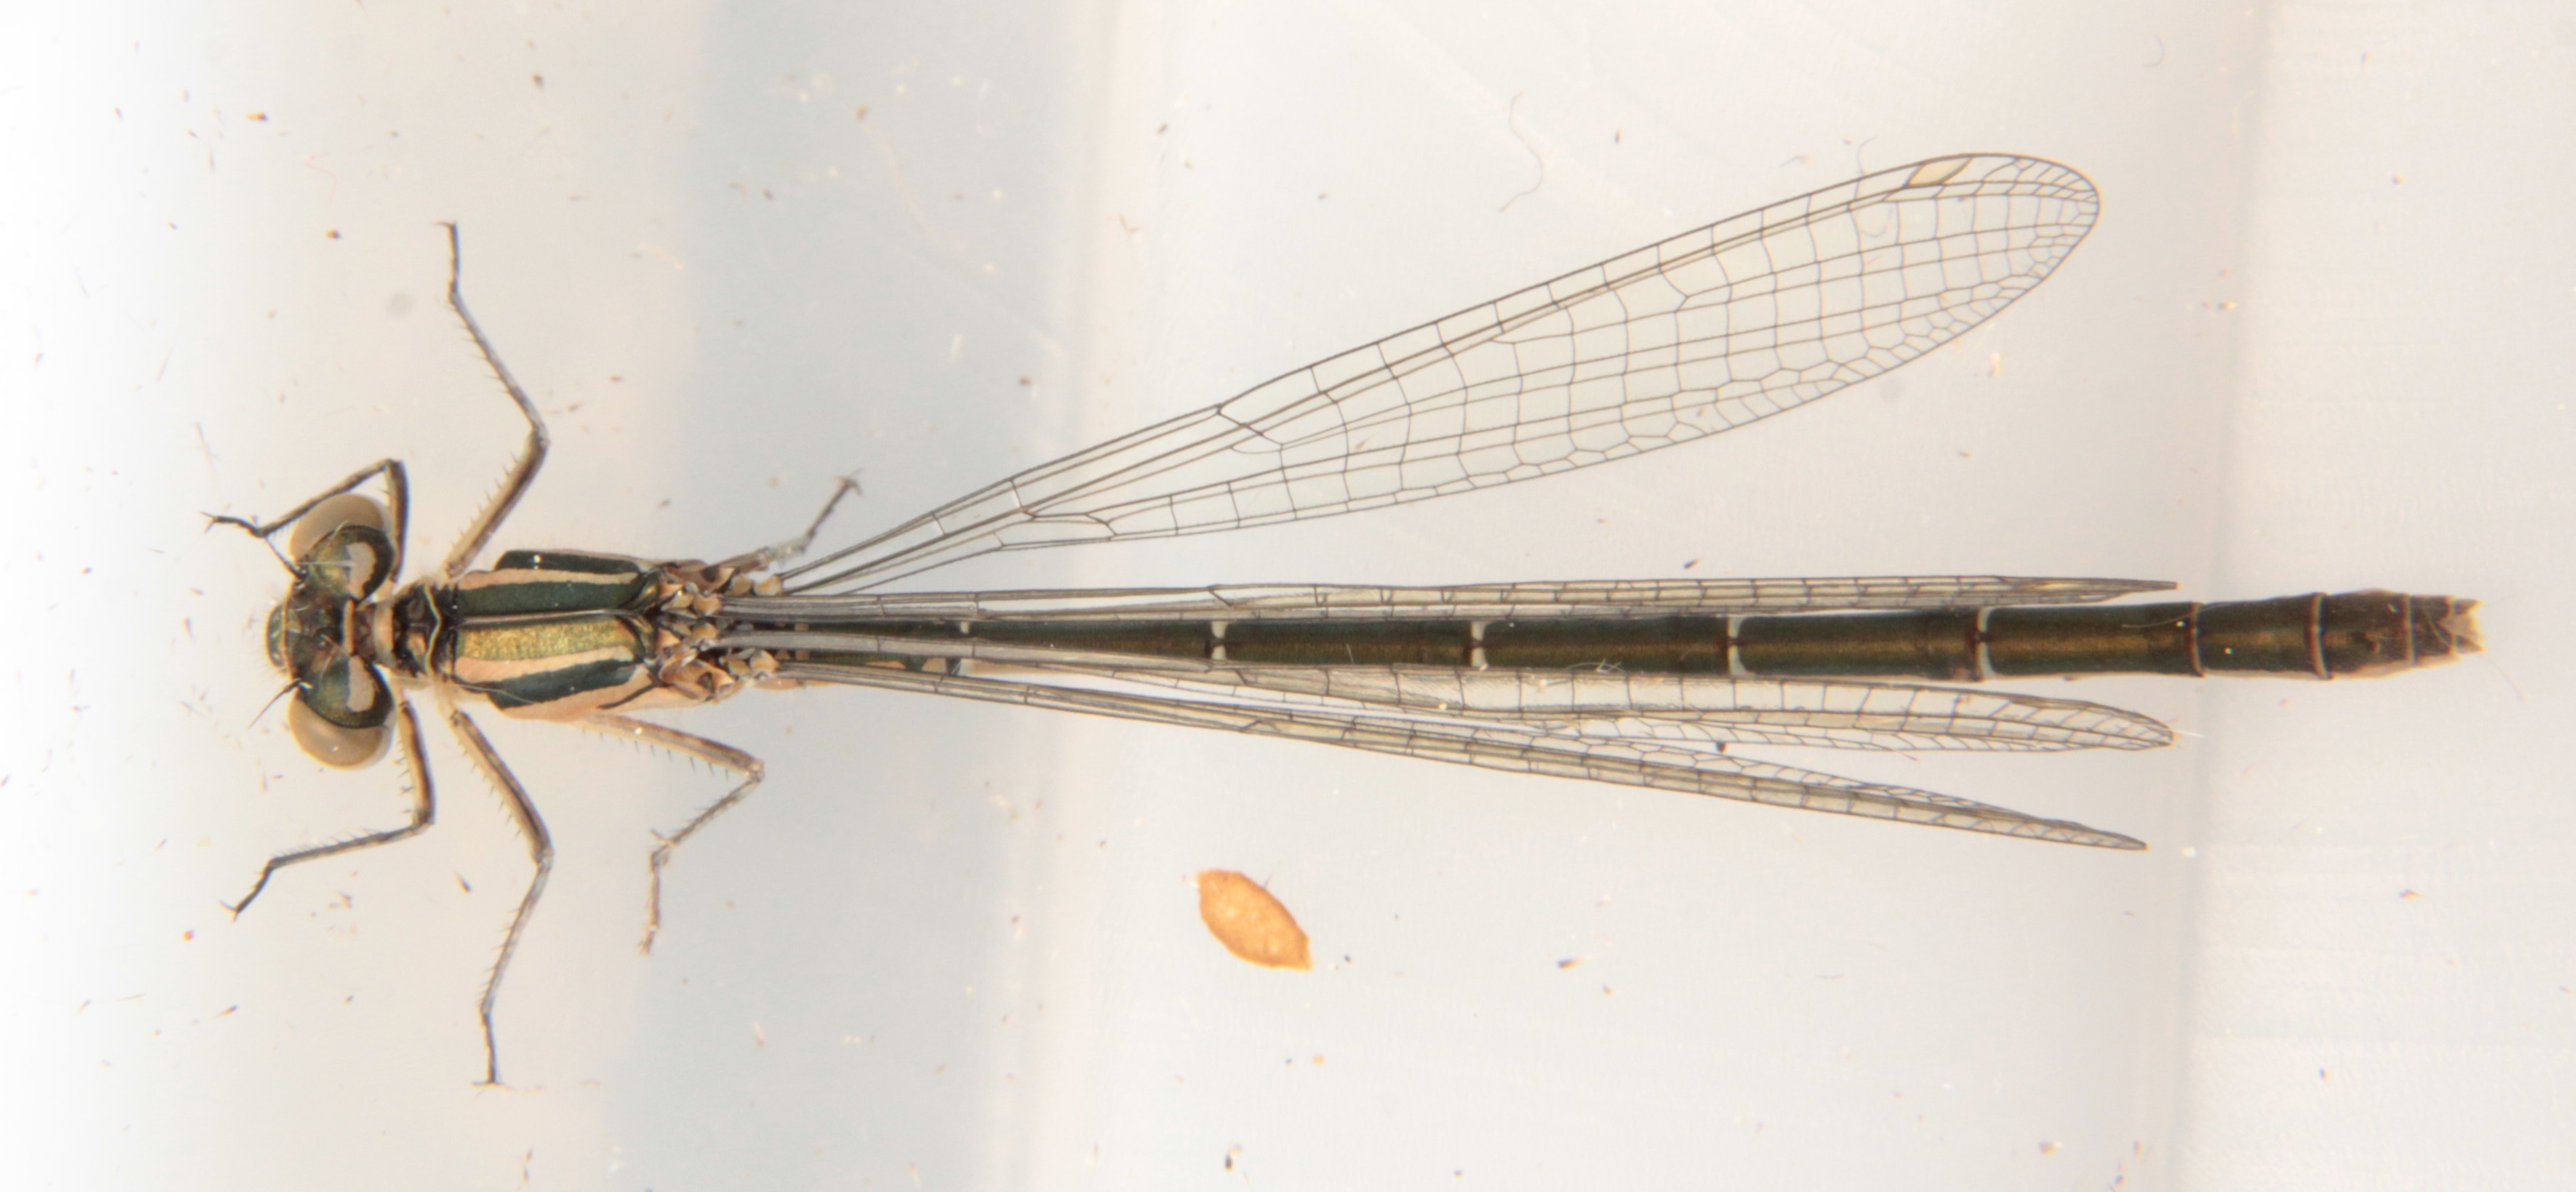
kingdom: Animalia
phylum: Arthropoda
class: Insecta
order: Odonata
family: Coenagrionidae
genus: Coenagrion
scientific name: Coenagrion hastulatum
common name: Spearhead bluet
